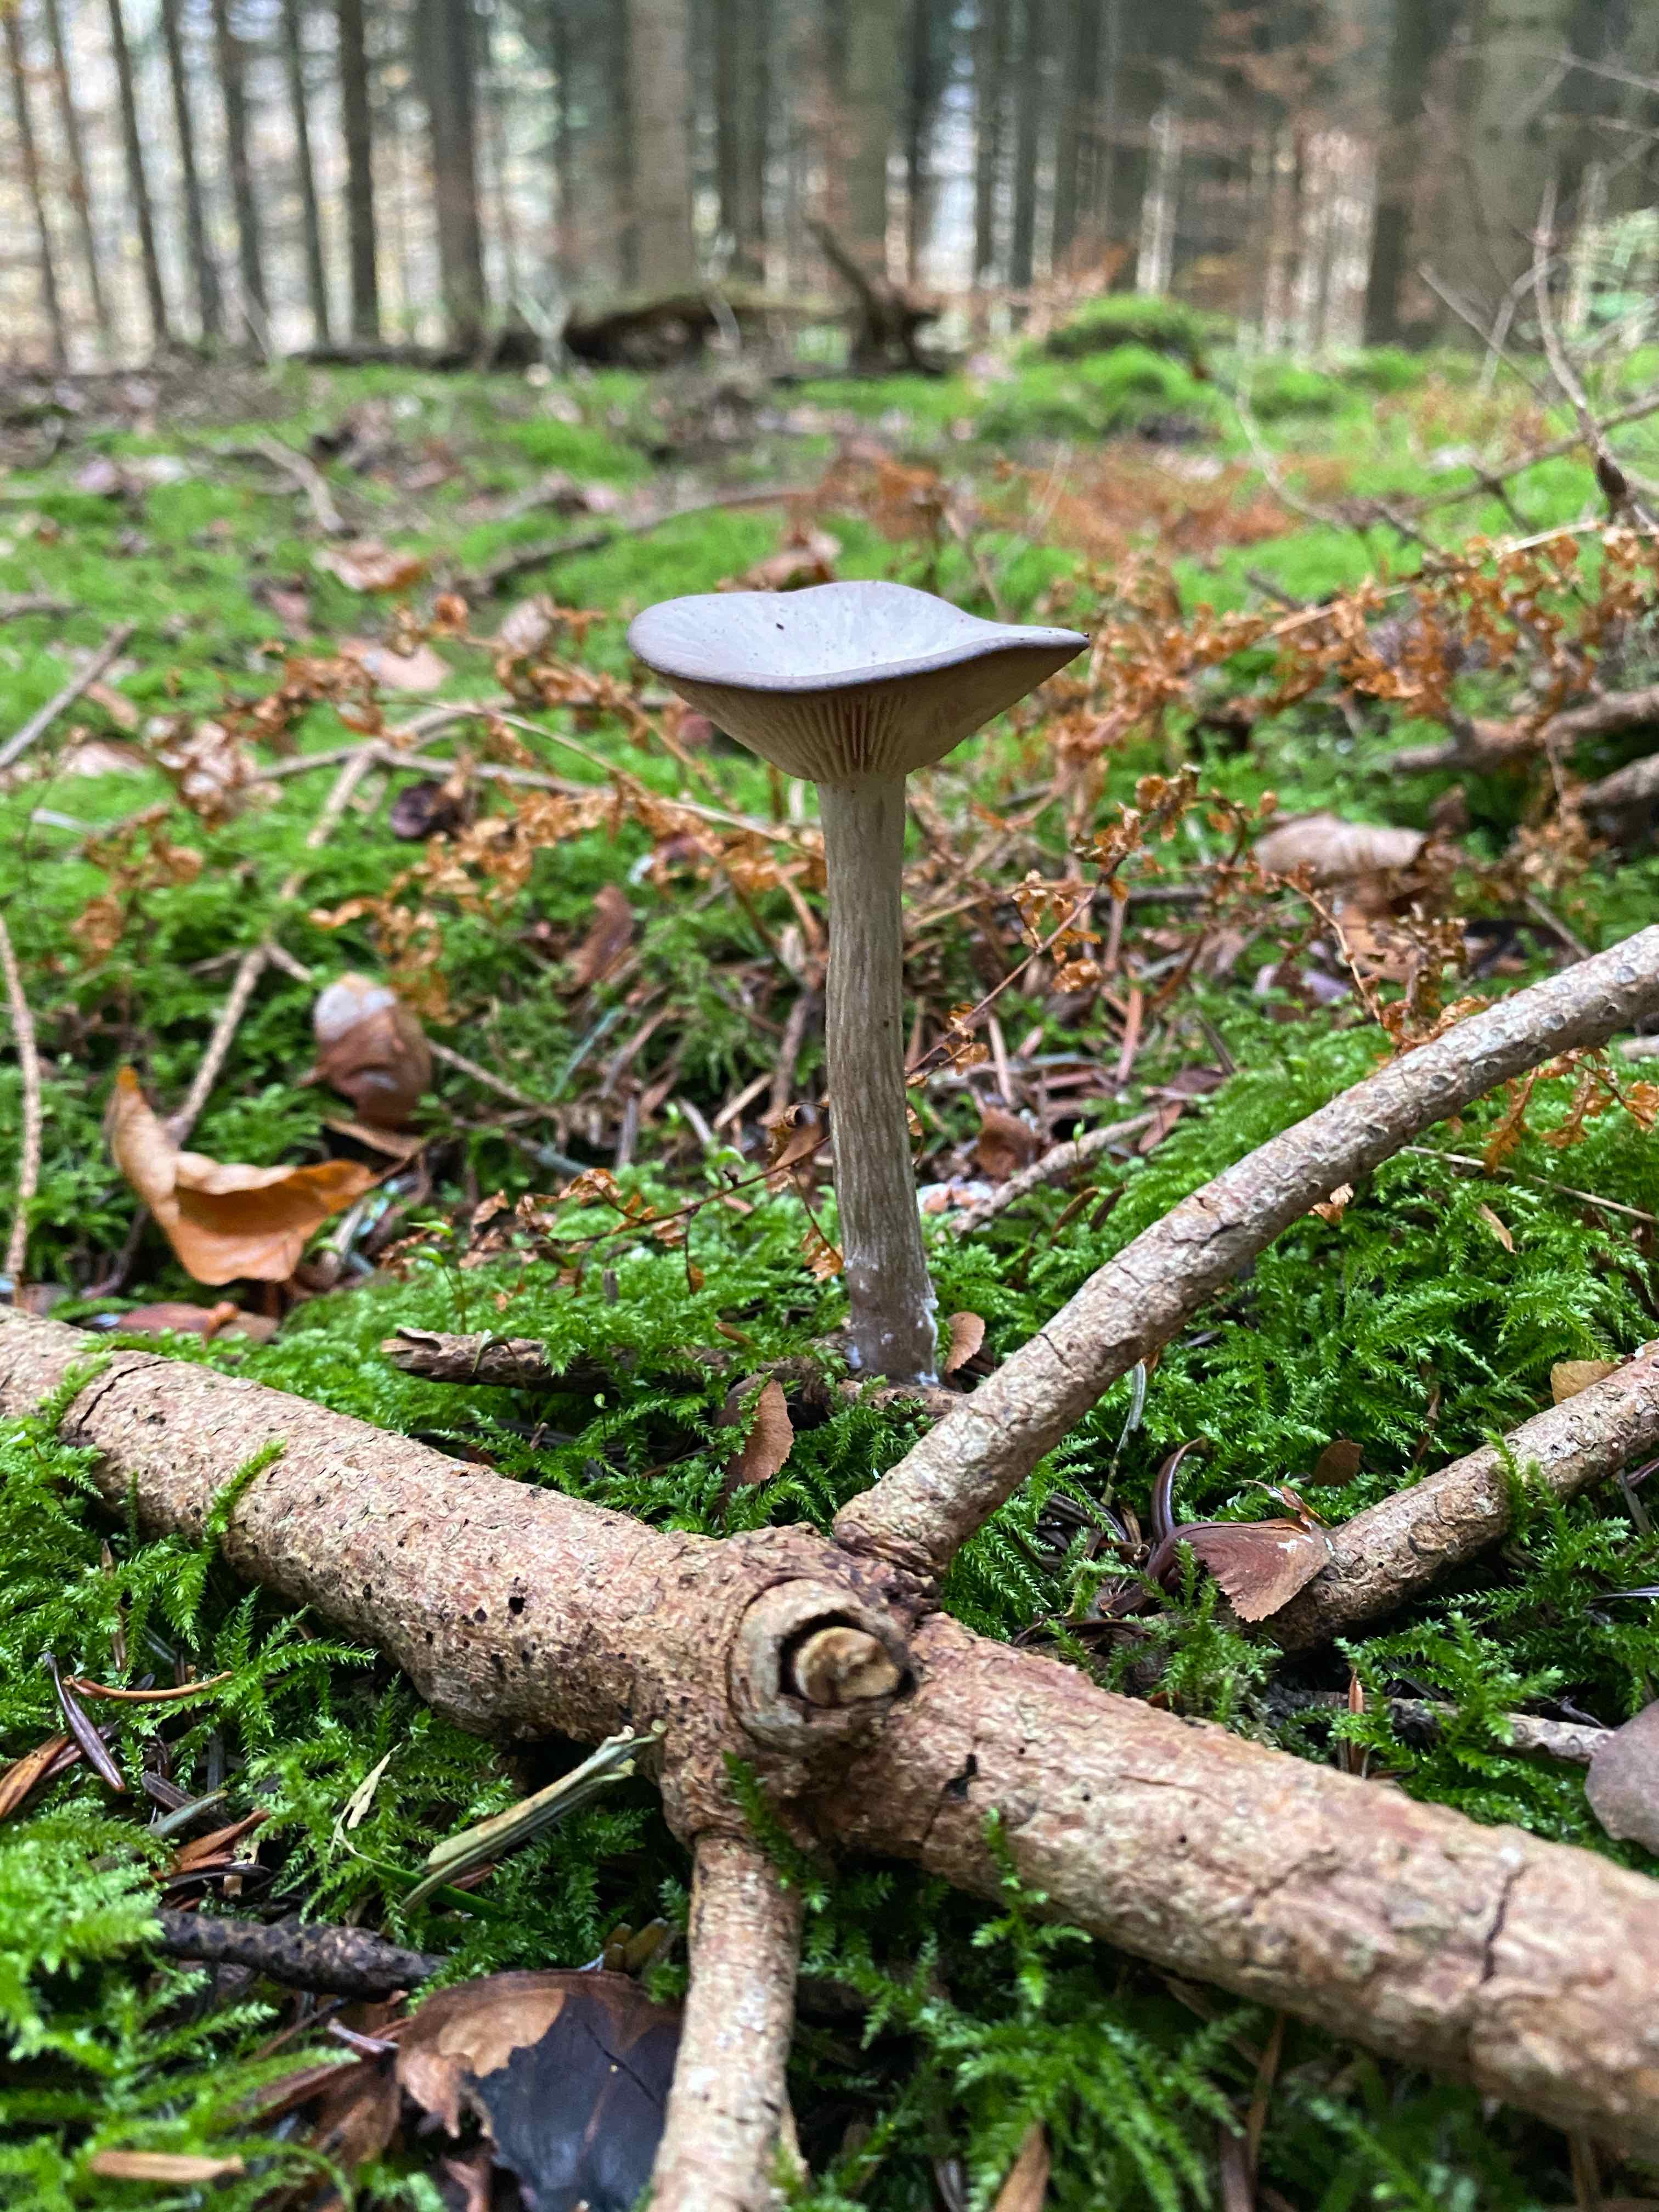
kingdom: Fungi
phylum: Basidiomycota
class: Agaricomycetes
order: Agaricales
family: Pseudoclitocybaceae
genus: Pseudoclitocybe
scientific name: Pseudoclitocybe cyathiformis
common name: almindelig bægertragthat
